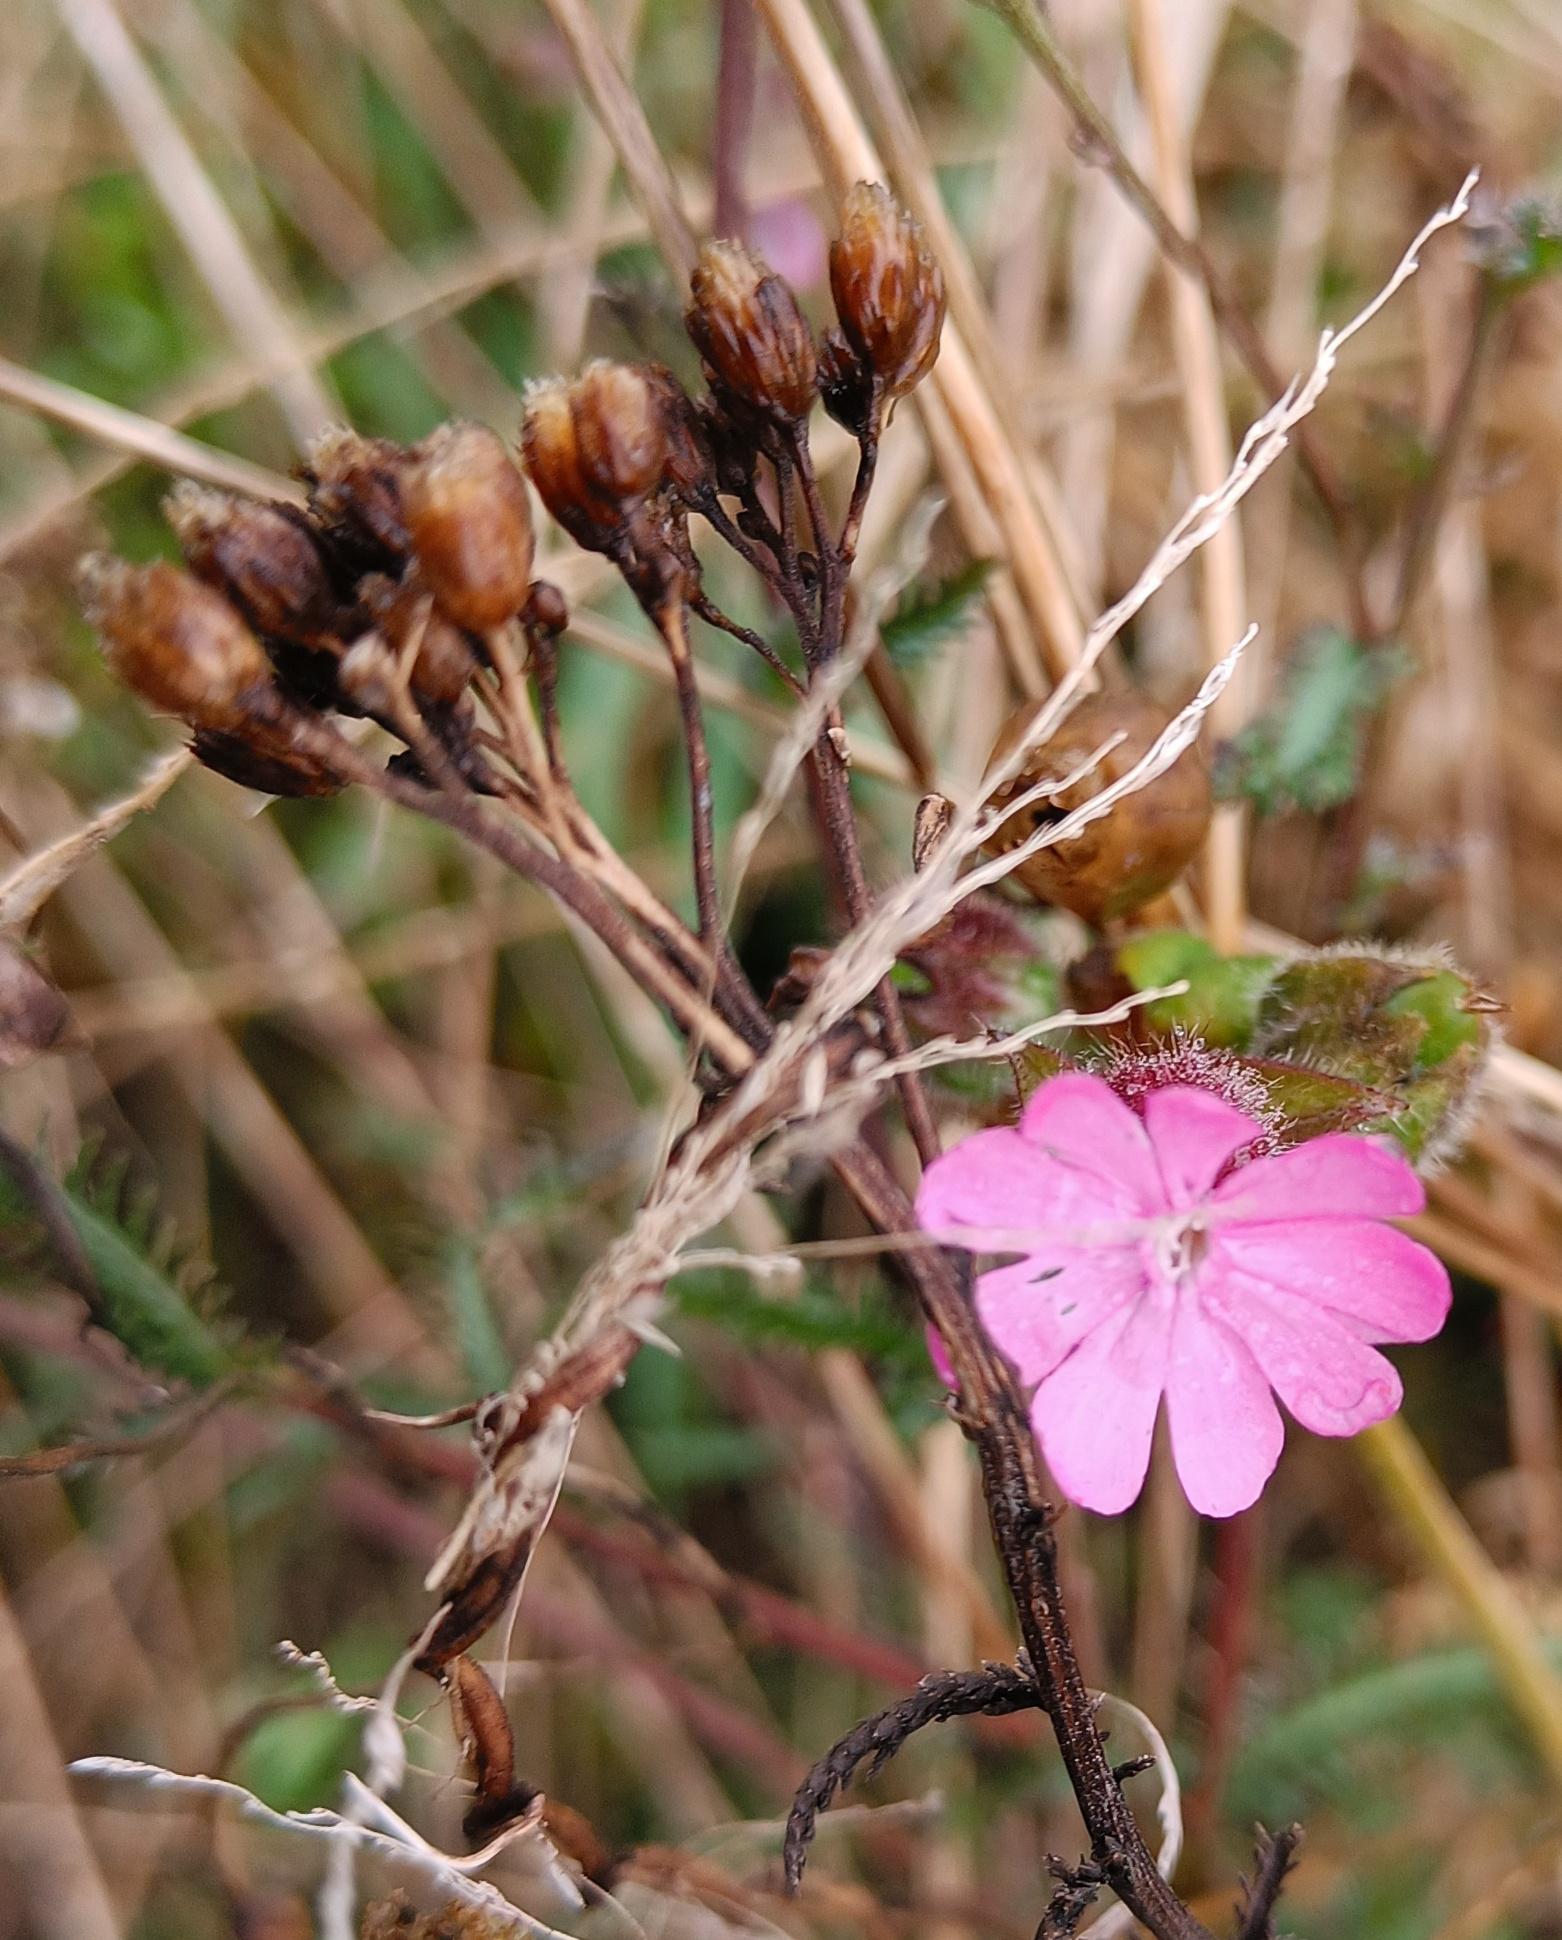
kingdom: Plantae
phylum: Tracheophyta
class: Magnoliopsida
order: Caryophyllales
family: Caryophyllaceae
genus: Silene
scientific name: Silene dioica
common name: Dagpragtstjerne
